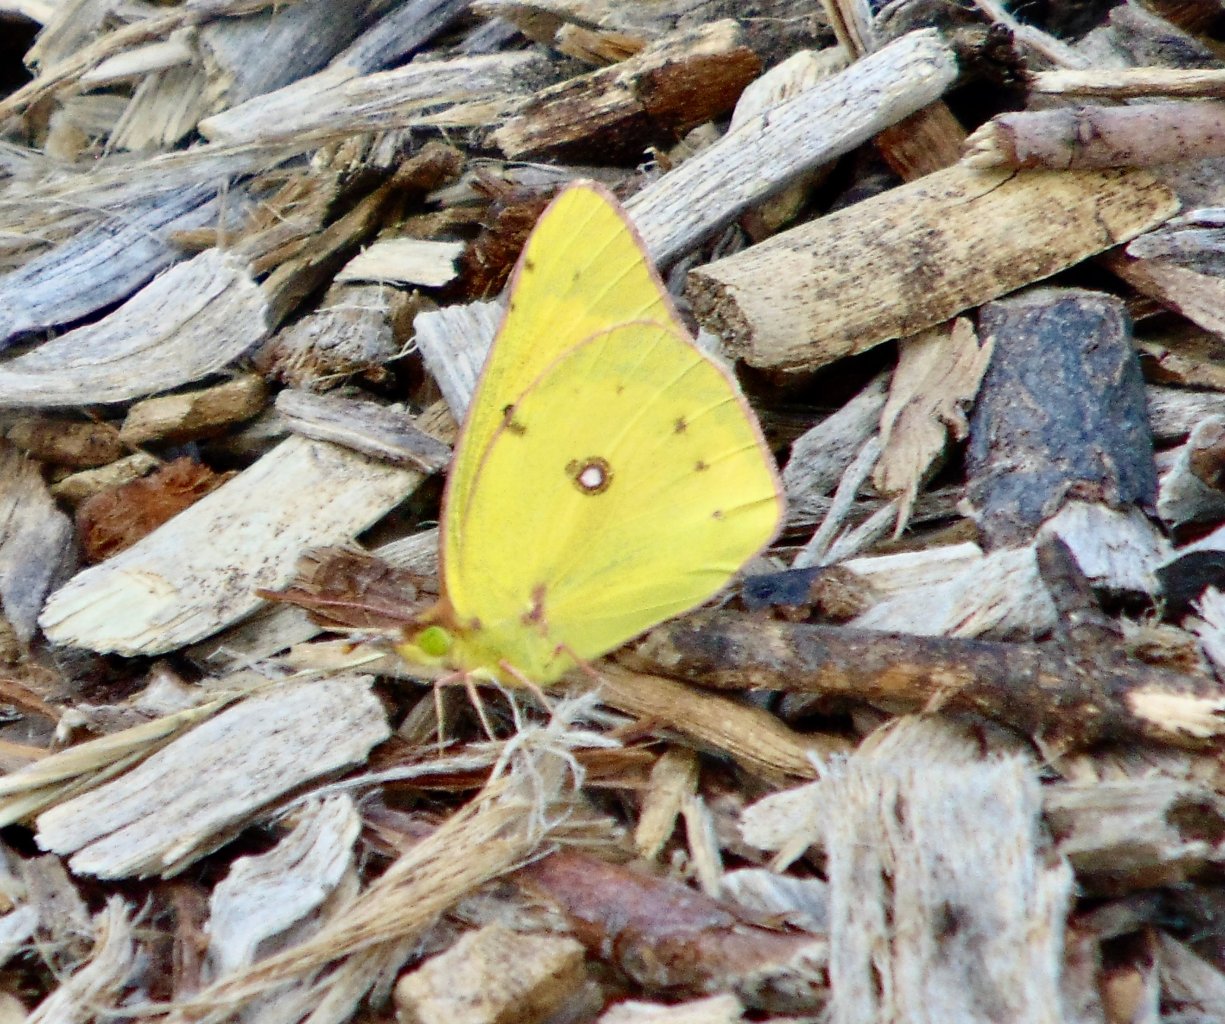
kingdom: Animalia
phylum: Arthropoda
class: Insecta
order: Lepidoptera
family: Pieridae
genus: Colias
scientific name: Colias philodice
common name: Clouded Sulphur
